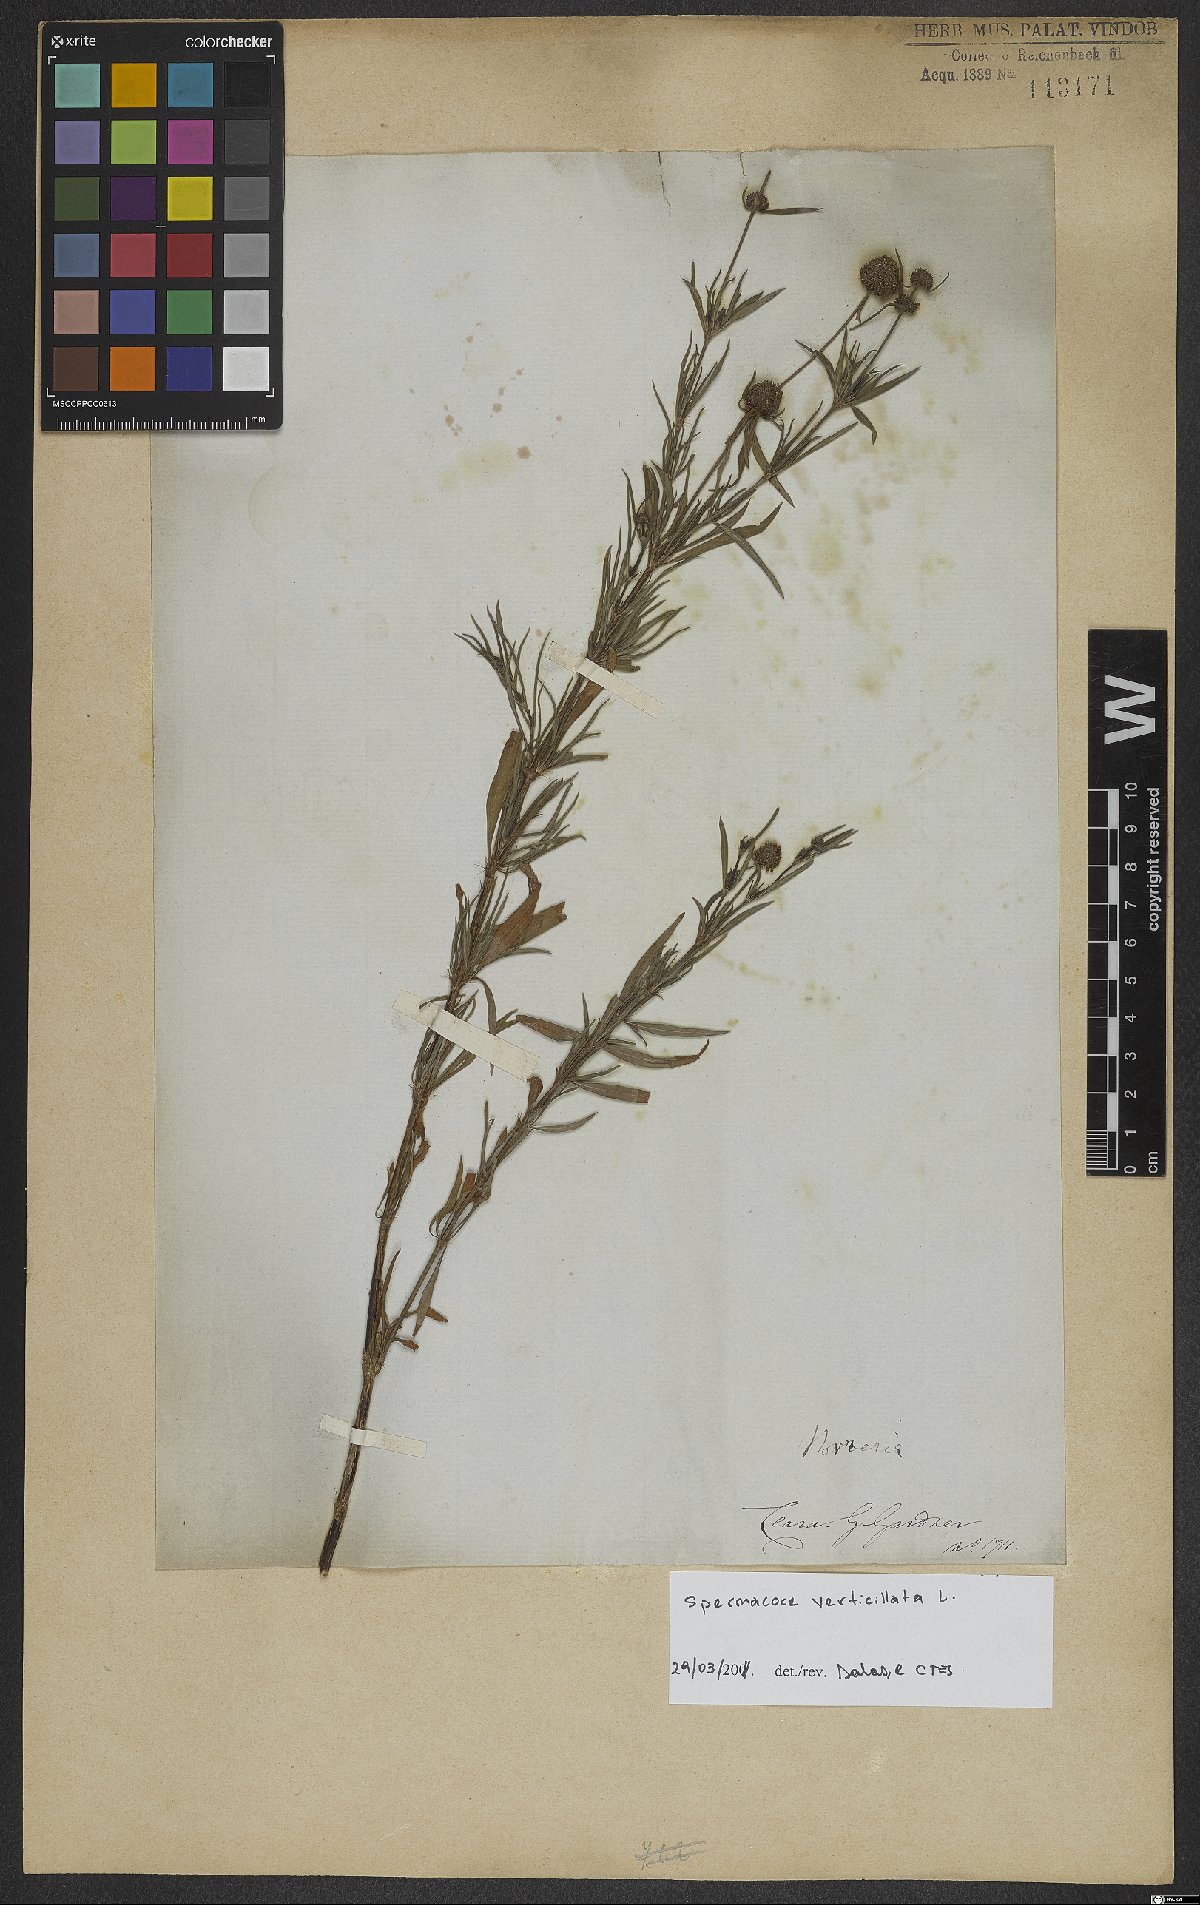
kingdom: Plantae
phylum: Tracheophyta
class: Magnoliopsida
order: Gentianales
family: Rubiaceae
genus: Spermacoce
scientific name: Spermacoce verticillata
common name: Shrubby false buttonweed
